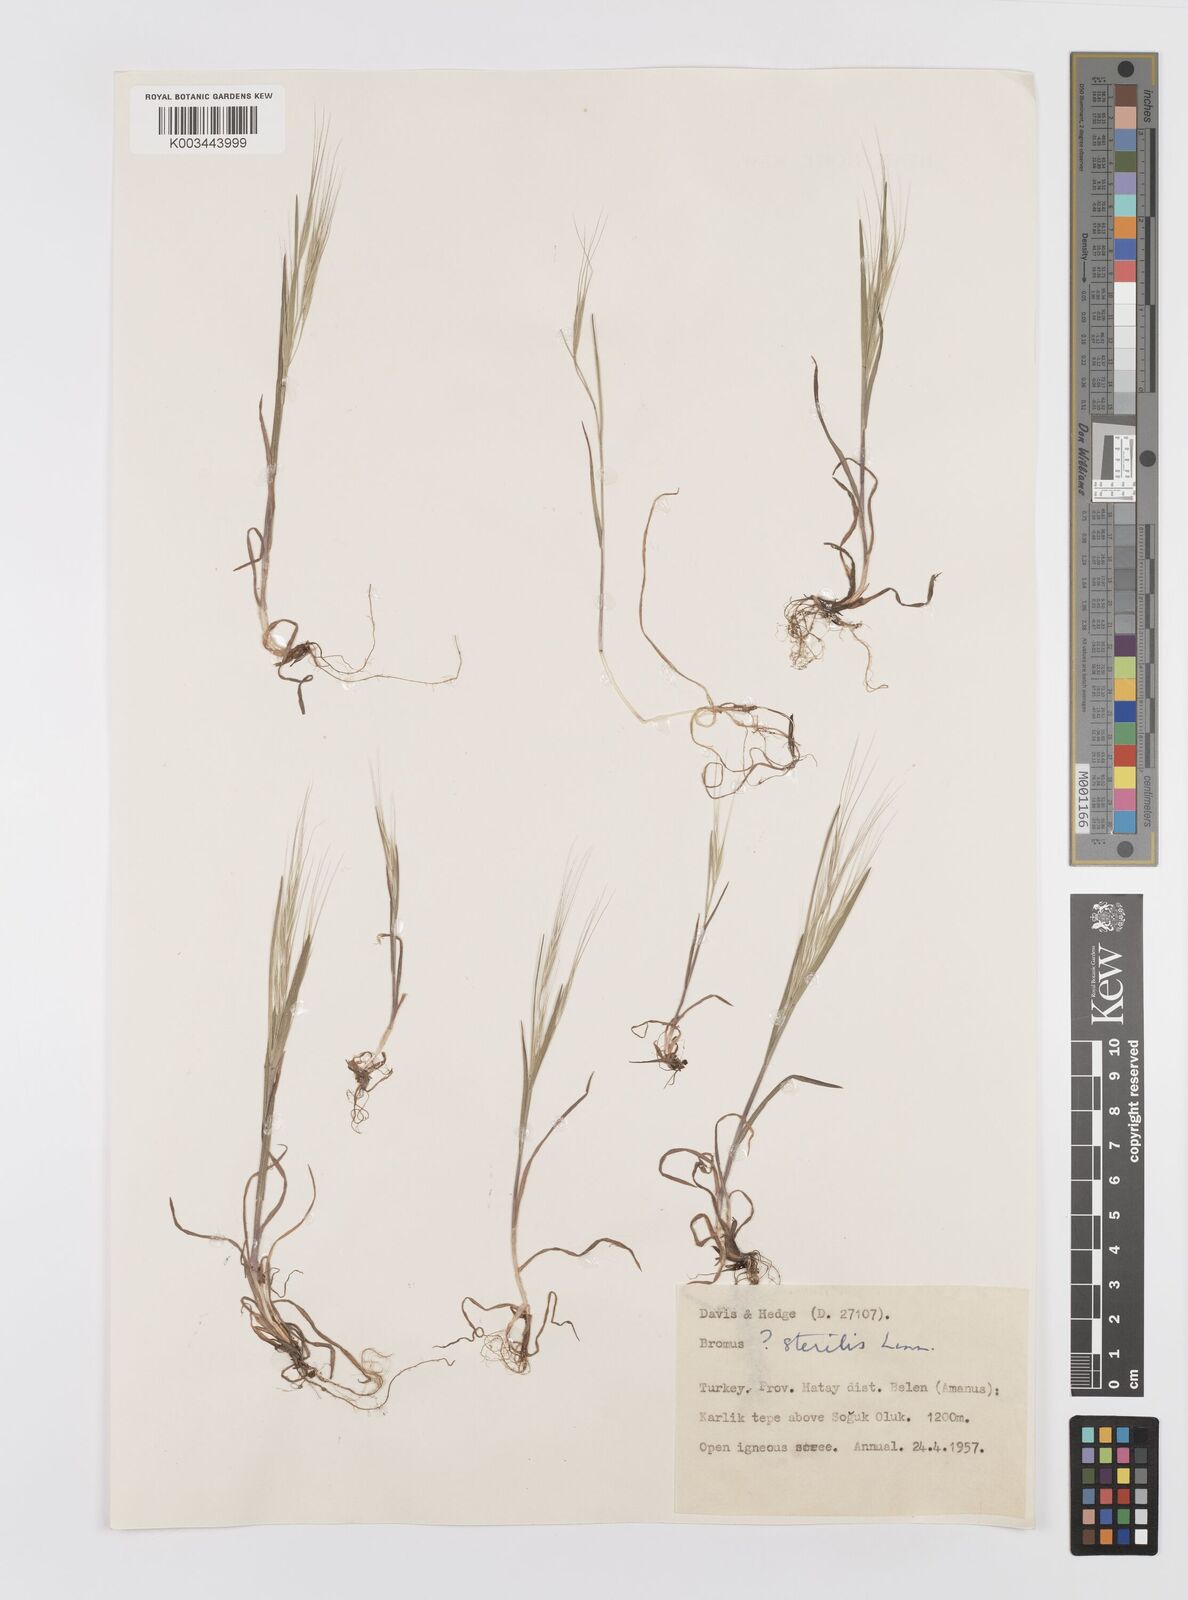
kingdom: Plantae
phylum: Tracheophyta
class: Liliopsida
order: Poales
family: Poaceae
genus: Bromus
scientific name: Bromus sterilis
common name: Poverty brome
